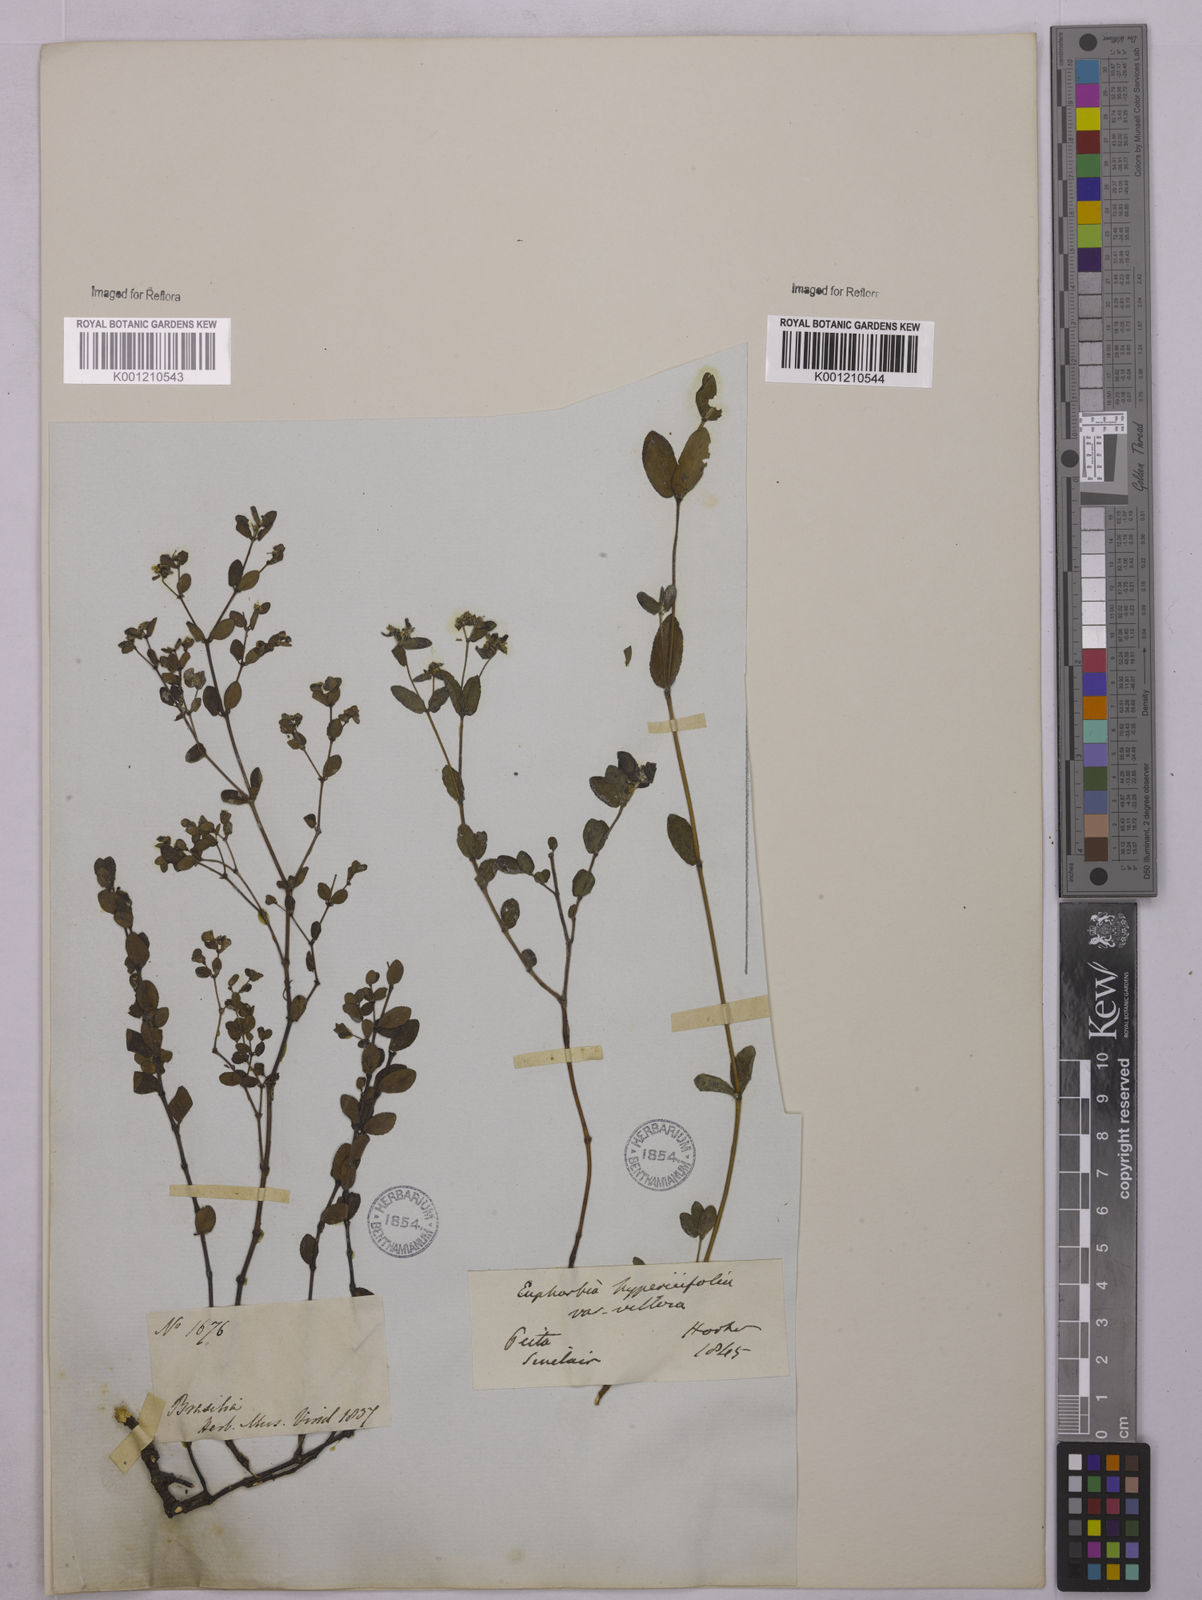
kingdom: Plantae
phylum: Tracheophyta
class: Magnoliopsida
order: Malpighiales
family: Euphorbiaceae
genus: Euphorbia
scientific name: Euphorbia hypericifolia
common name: Graceful sandmat
